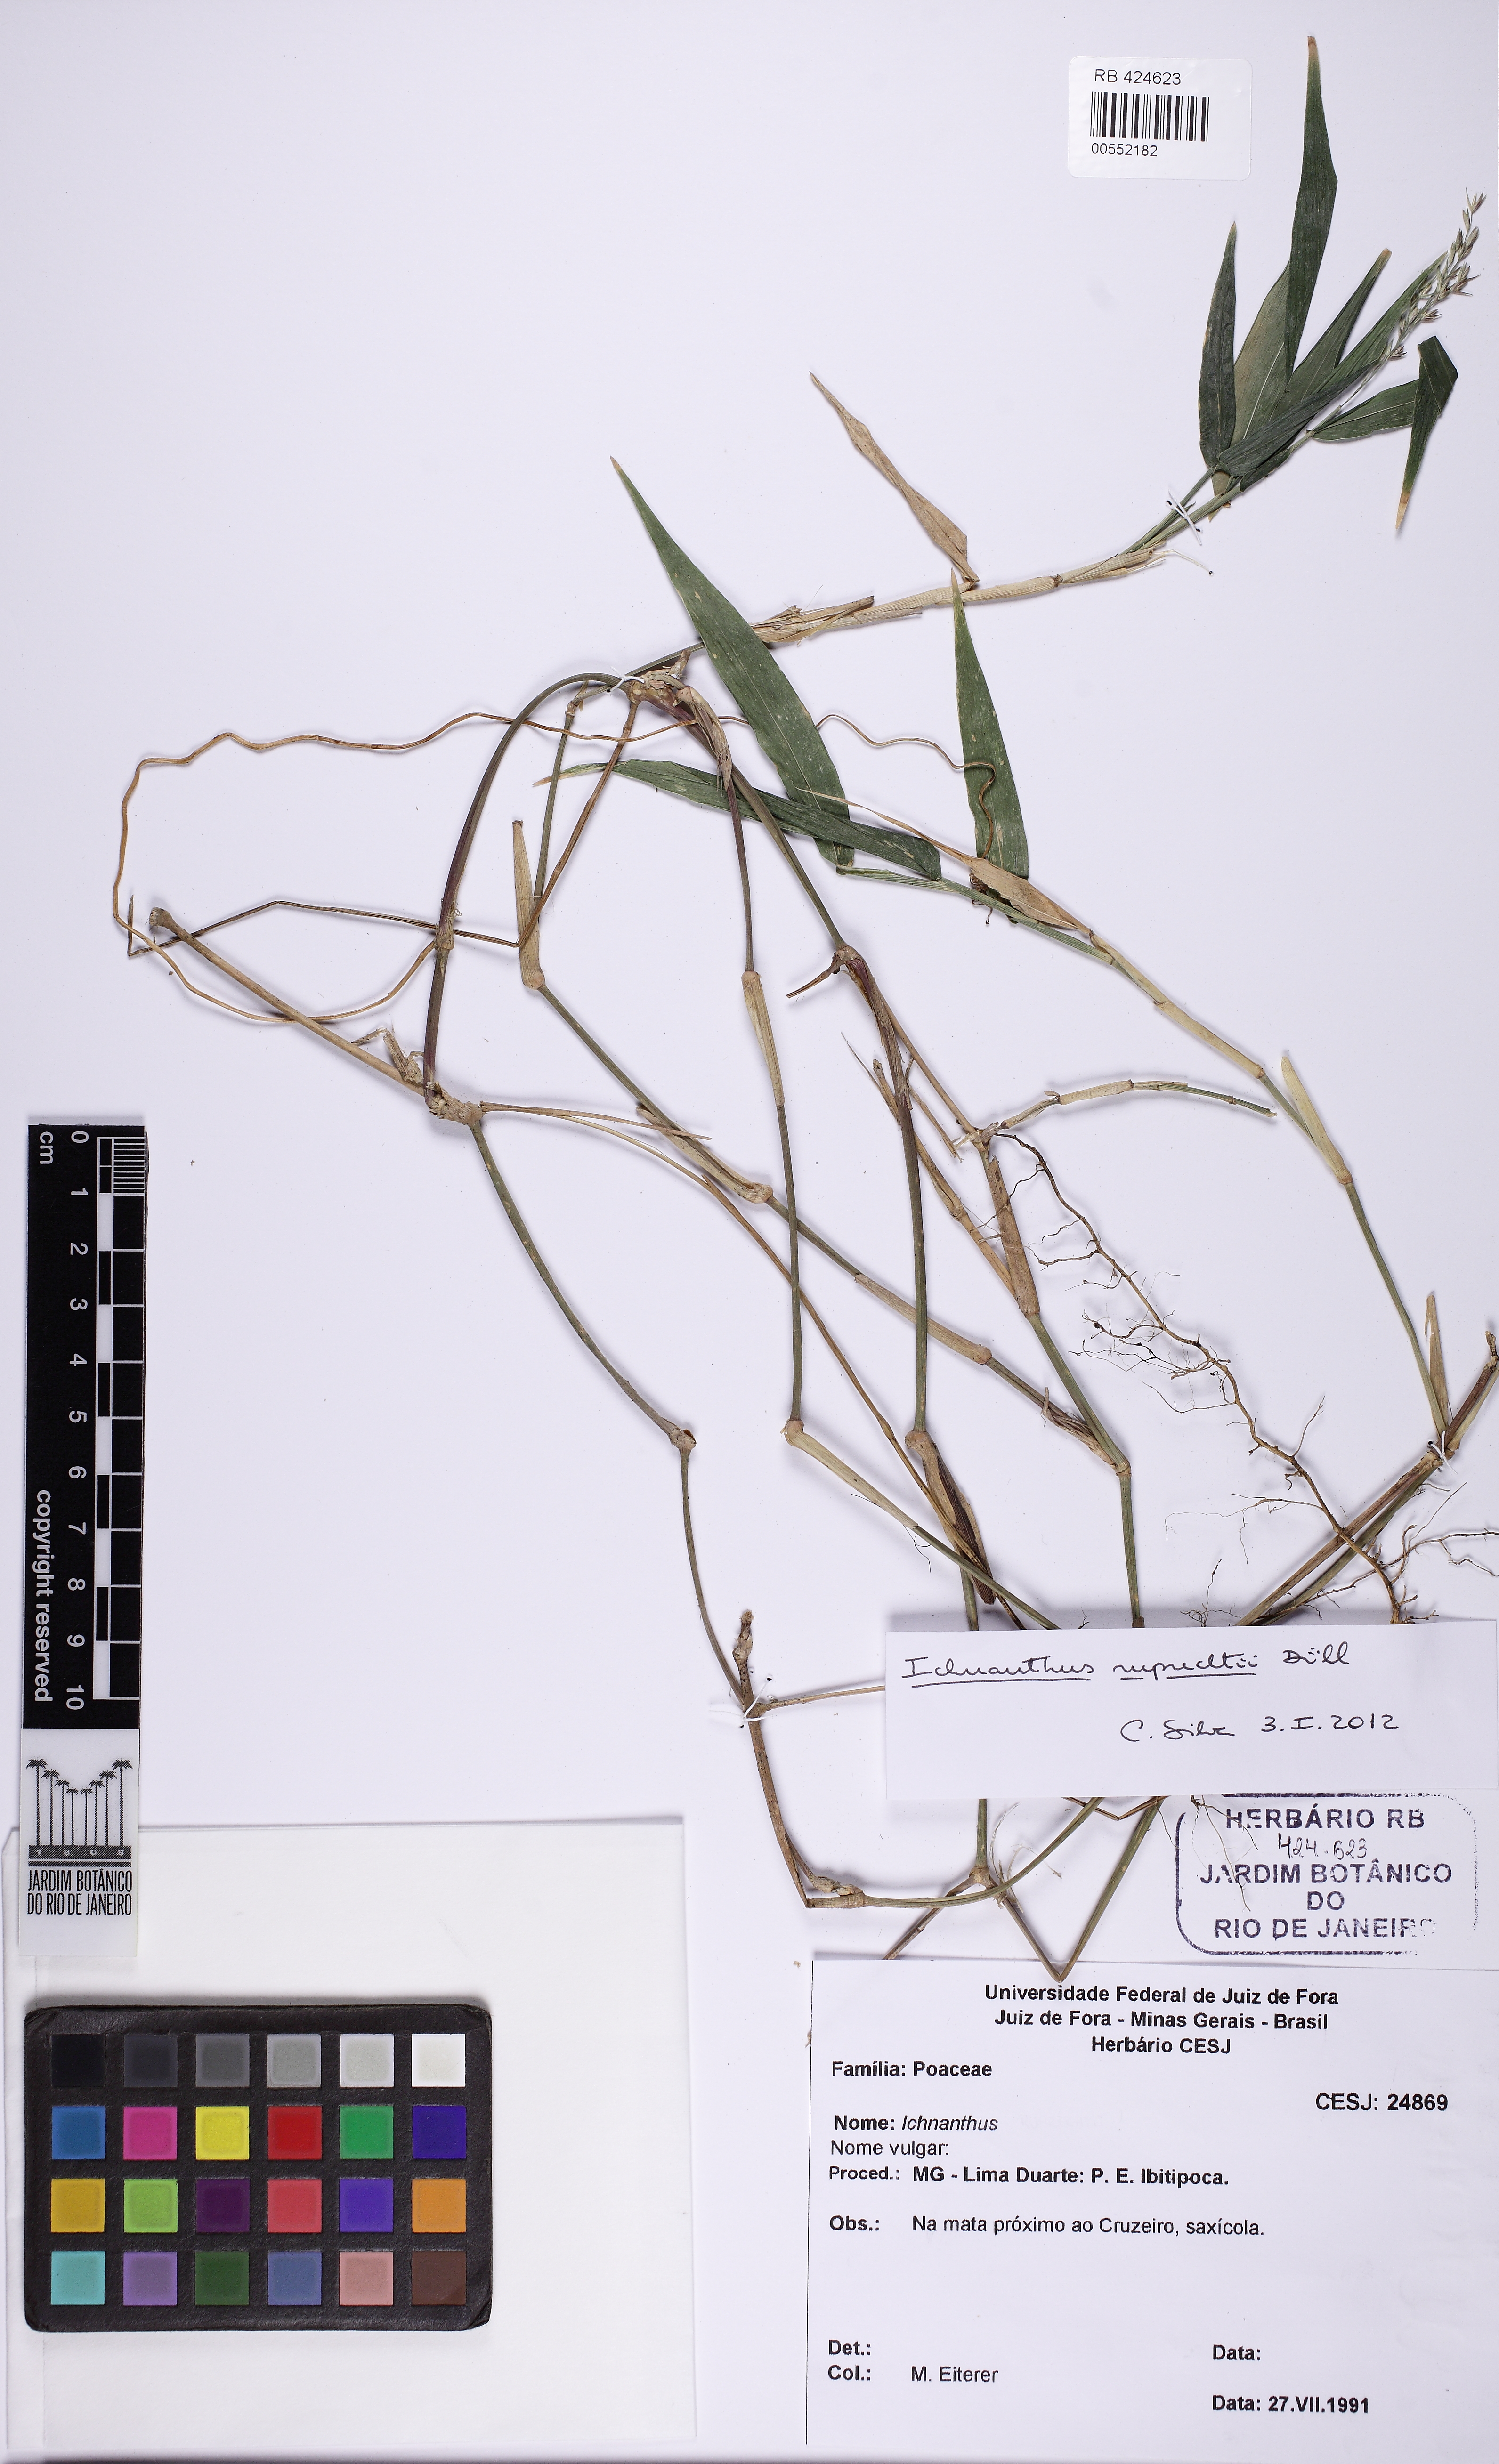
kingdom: Plantae
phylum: Tracheophyta
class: Liliopsida
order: Poales
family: Poaceae
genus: Ichnanthus
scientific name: Ichnanthus ruprechtii
